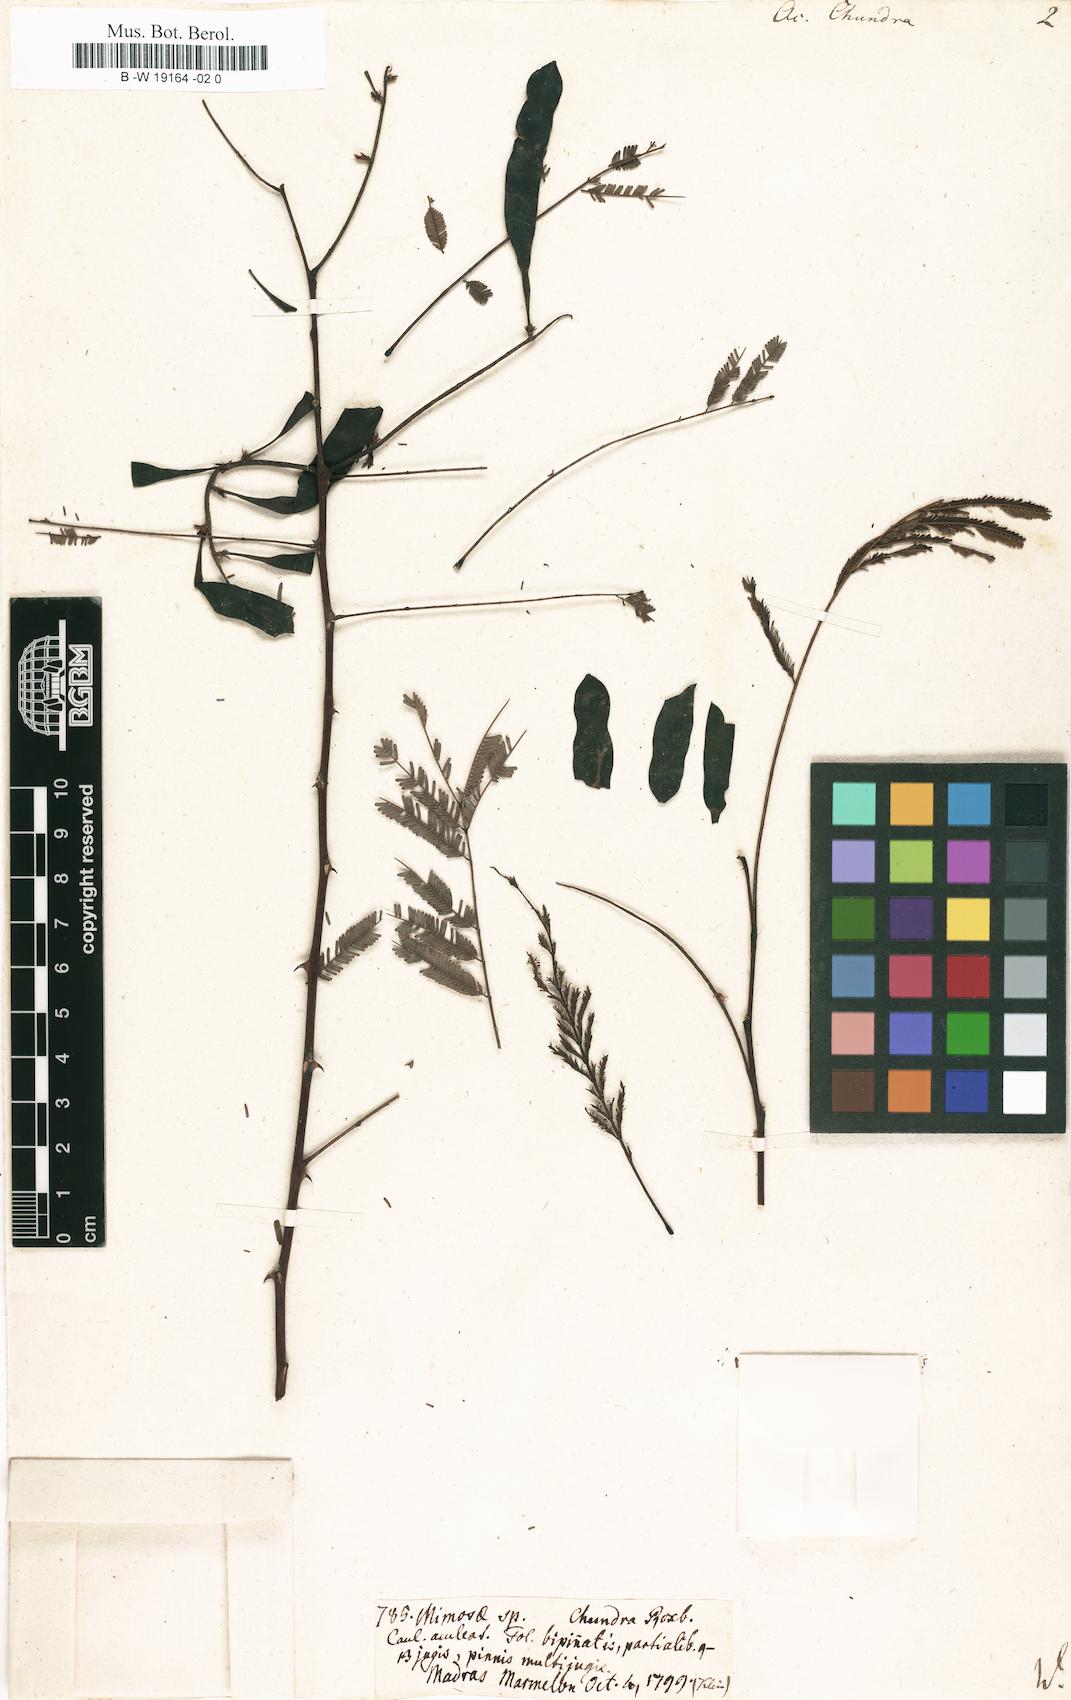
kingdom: Plantae
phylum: Tracheophyta
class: Magnoliopsida
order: Fabales
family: Fabaceae
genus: Senegalia
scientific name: Senegalia chundra
